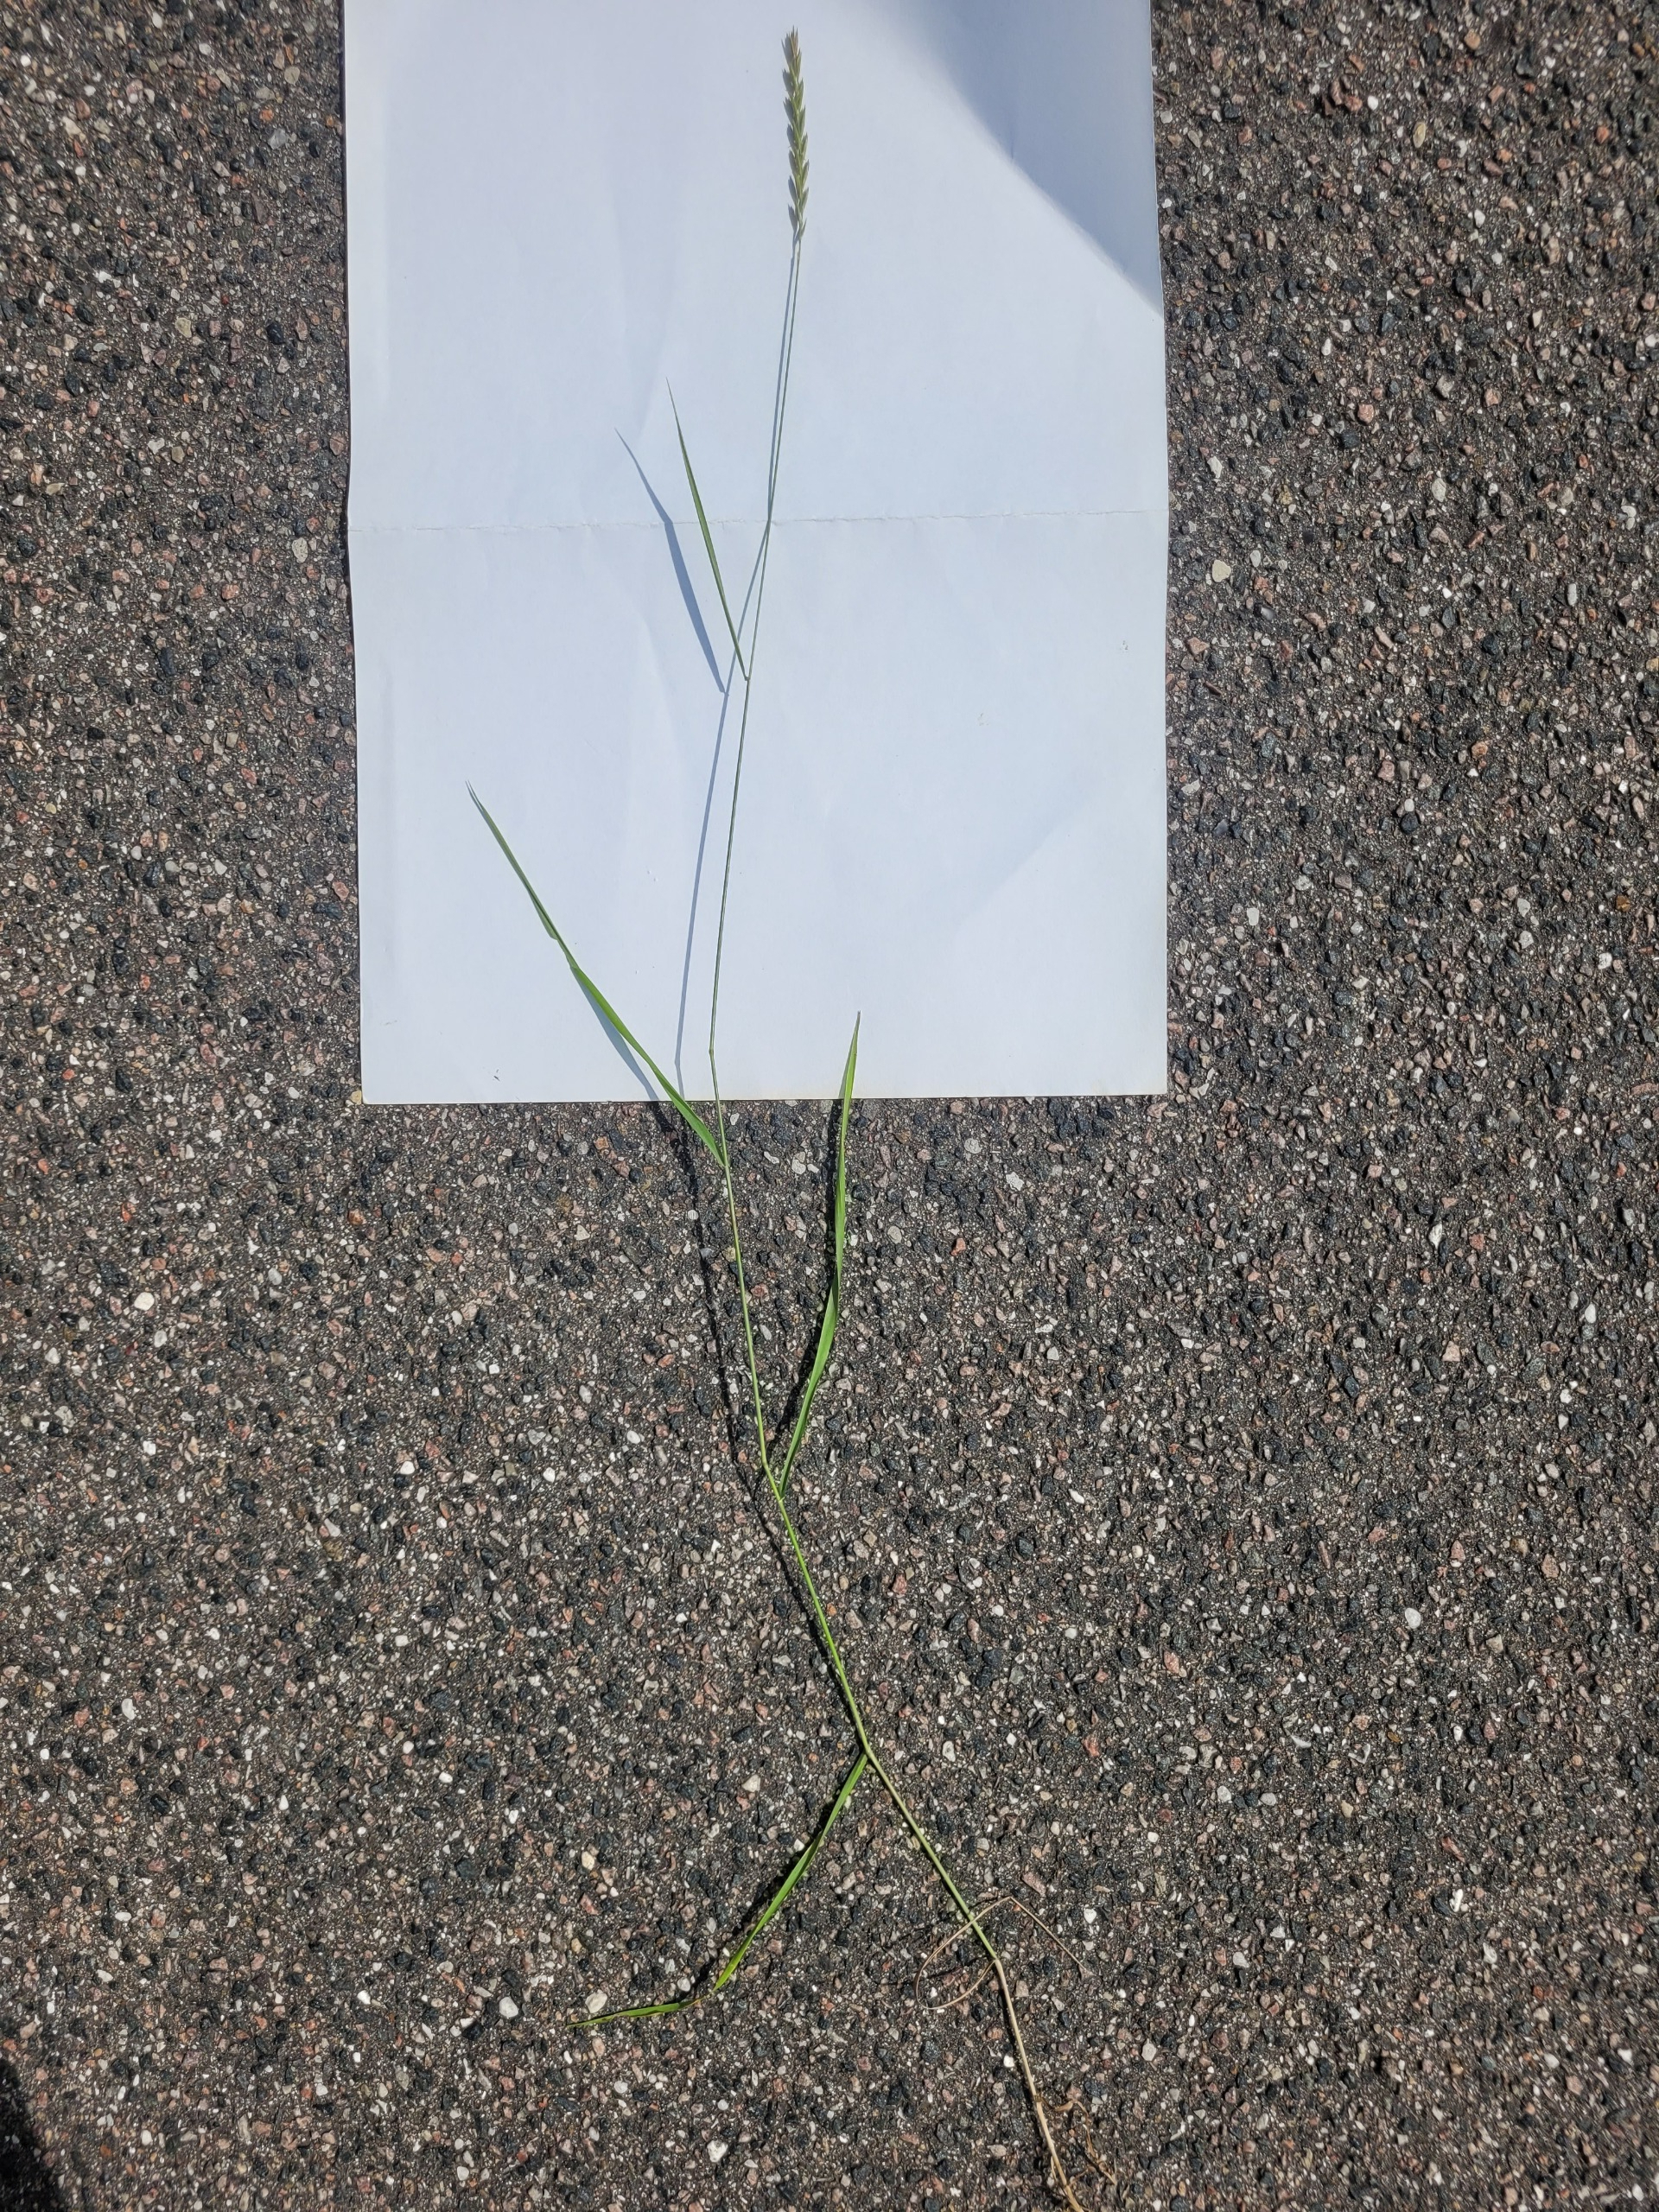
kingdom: Plantae
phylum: Tracheophyta
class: Liliopsida
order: Poales
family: Poaceae
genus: Elymus
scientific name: Elymus repens
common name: Almindelig kvik
